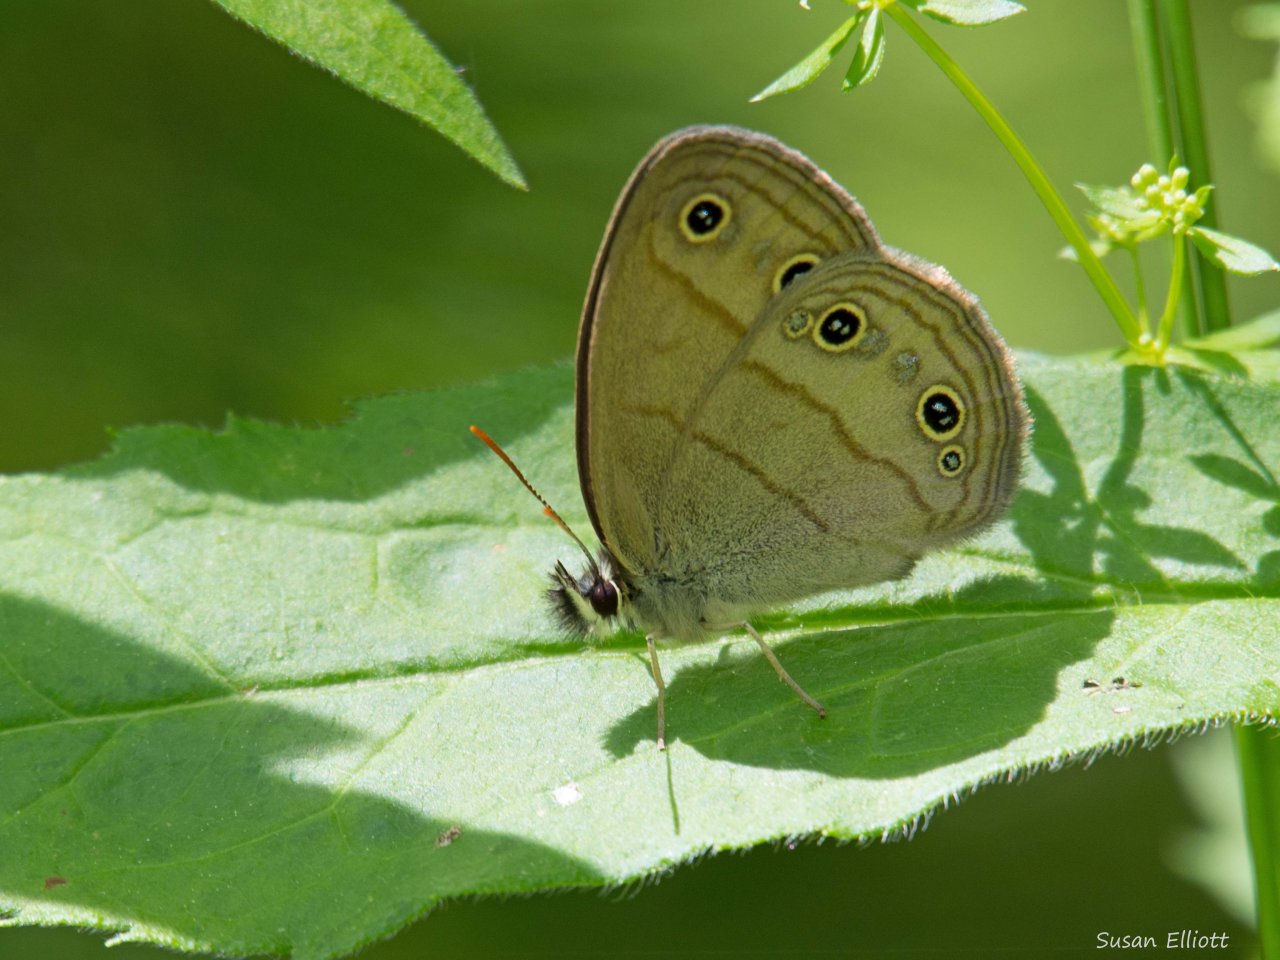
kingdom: Animalia
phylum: Arthropoda
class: Insecta
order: Lepidoptera
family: Nymphalidae
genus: Euptychia
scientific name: Euptychia cymela
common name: Little Wood Satyr
